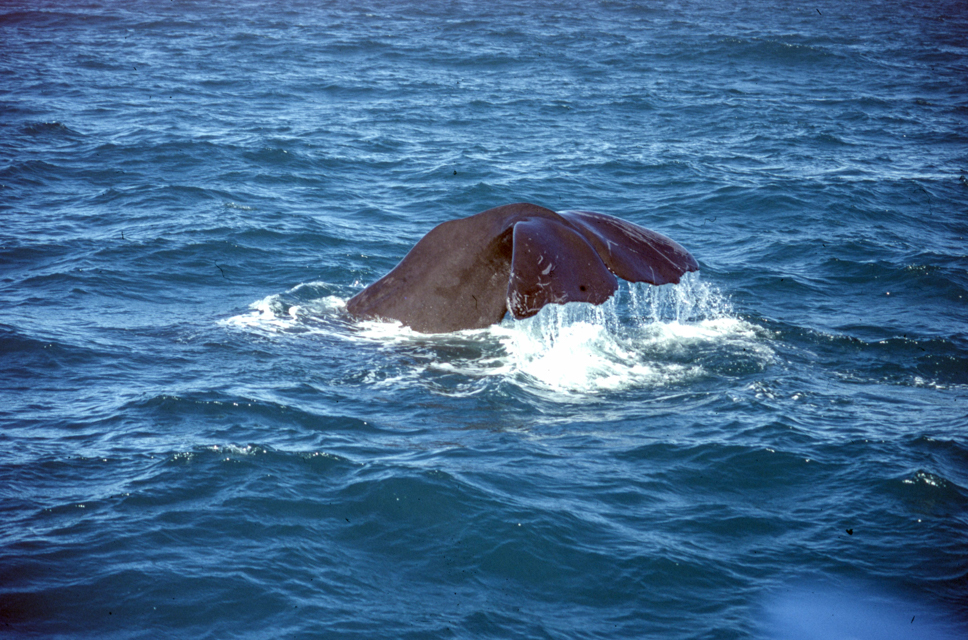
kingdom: Animalia
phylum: Chordata
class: Mammalia
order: Cetacea
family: Physeteridae
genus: Physeter
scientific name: Physeter macrocephalus
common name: Sperm whale
